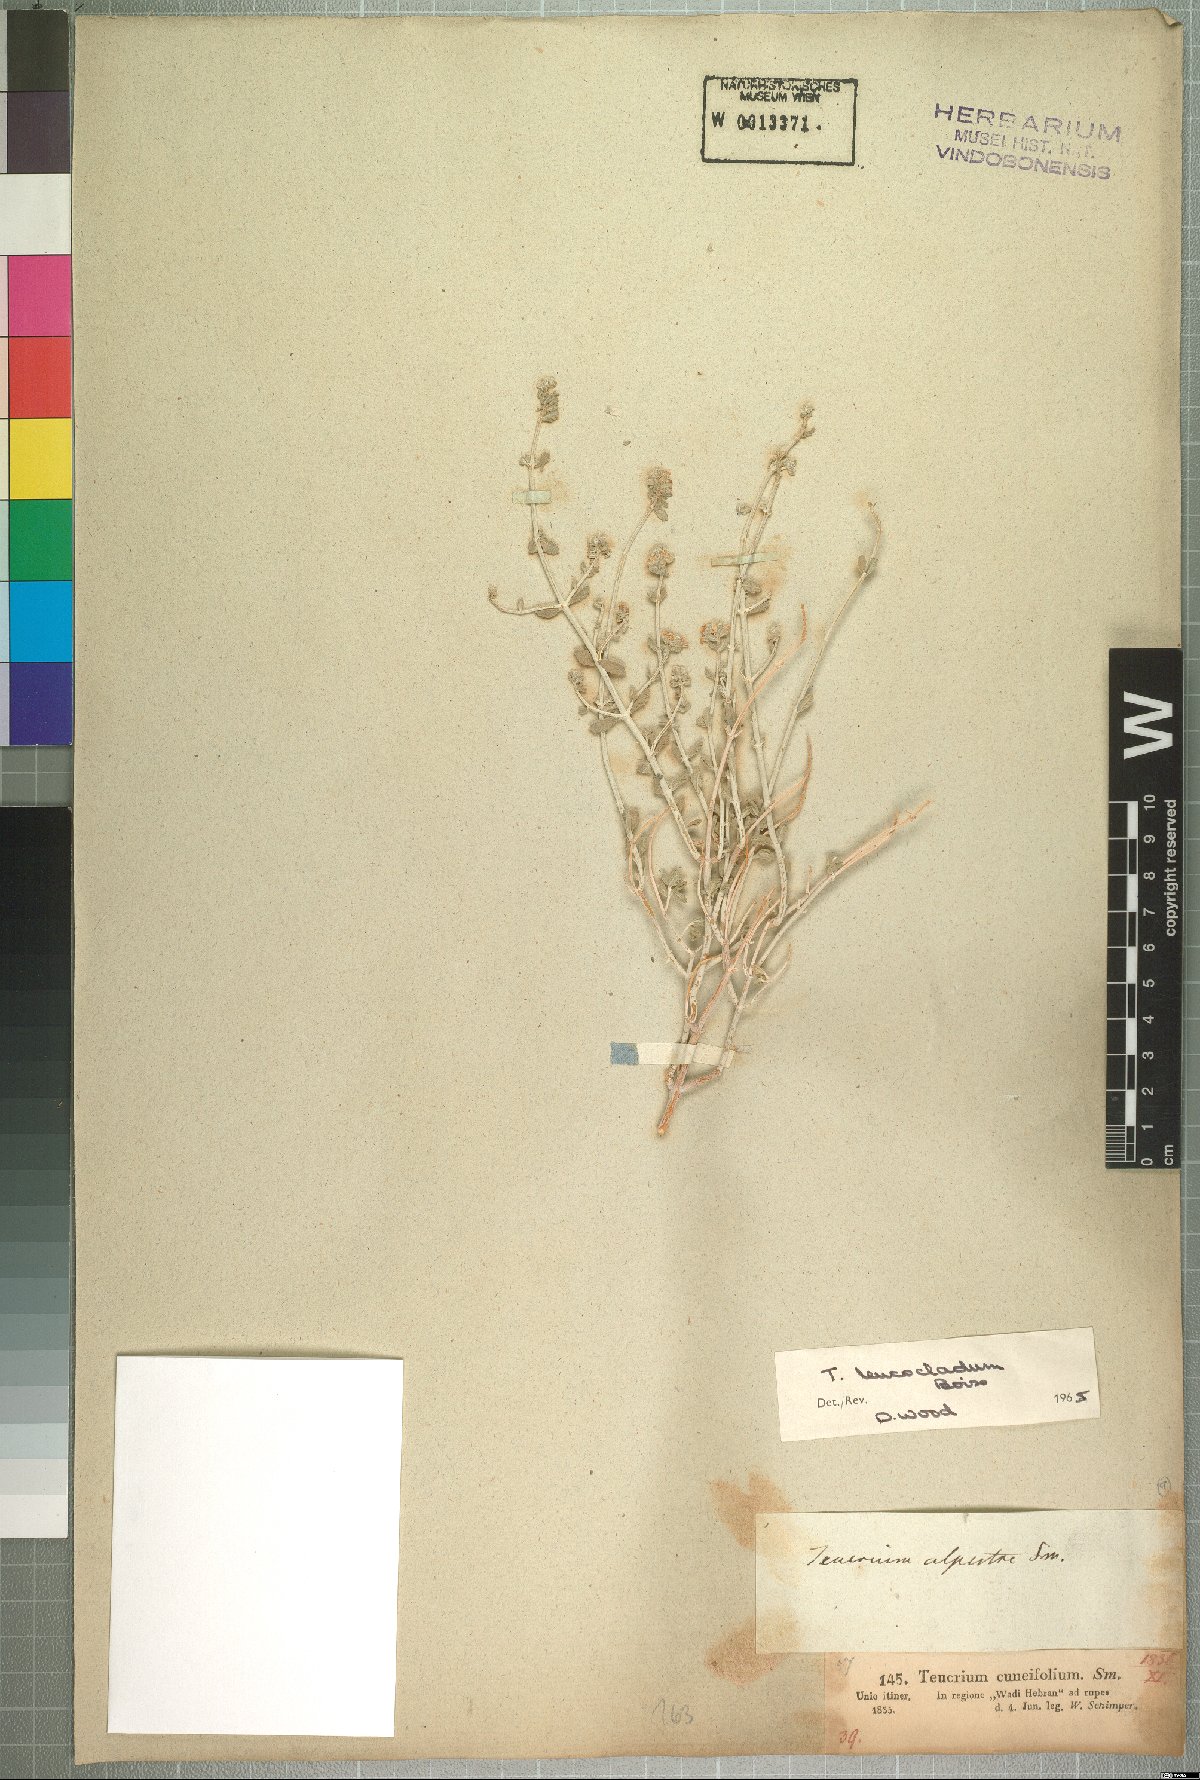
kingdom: Plantae
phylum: Tracheophyta
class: Magnoliopsida
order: Lamiales
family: Lamiaceae
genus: Teucrium
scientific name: Teucrium leucocladum
